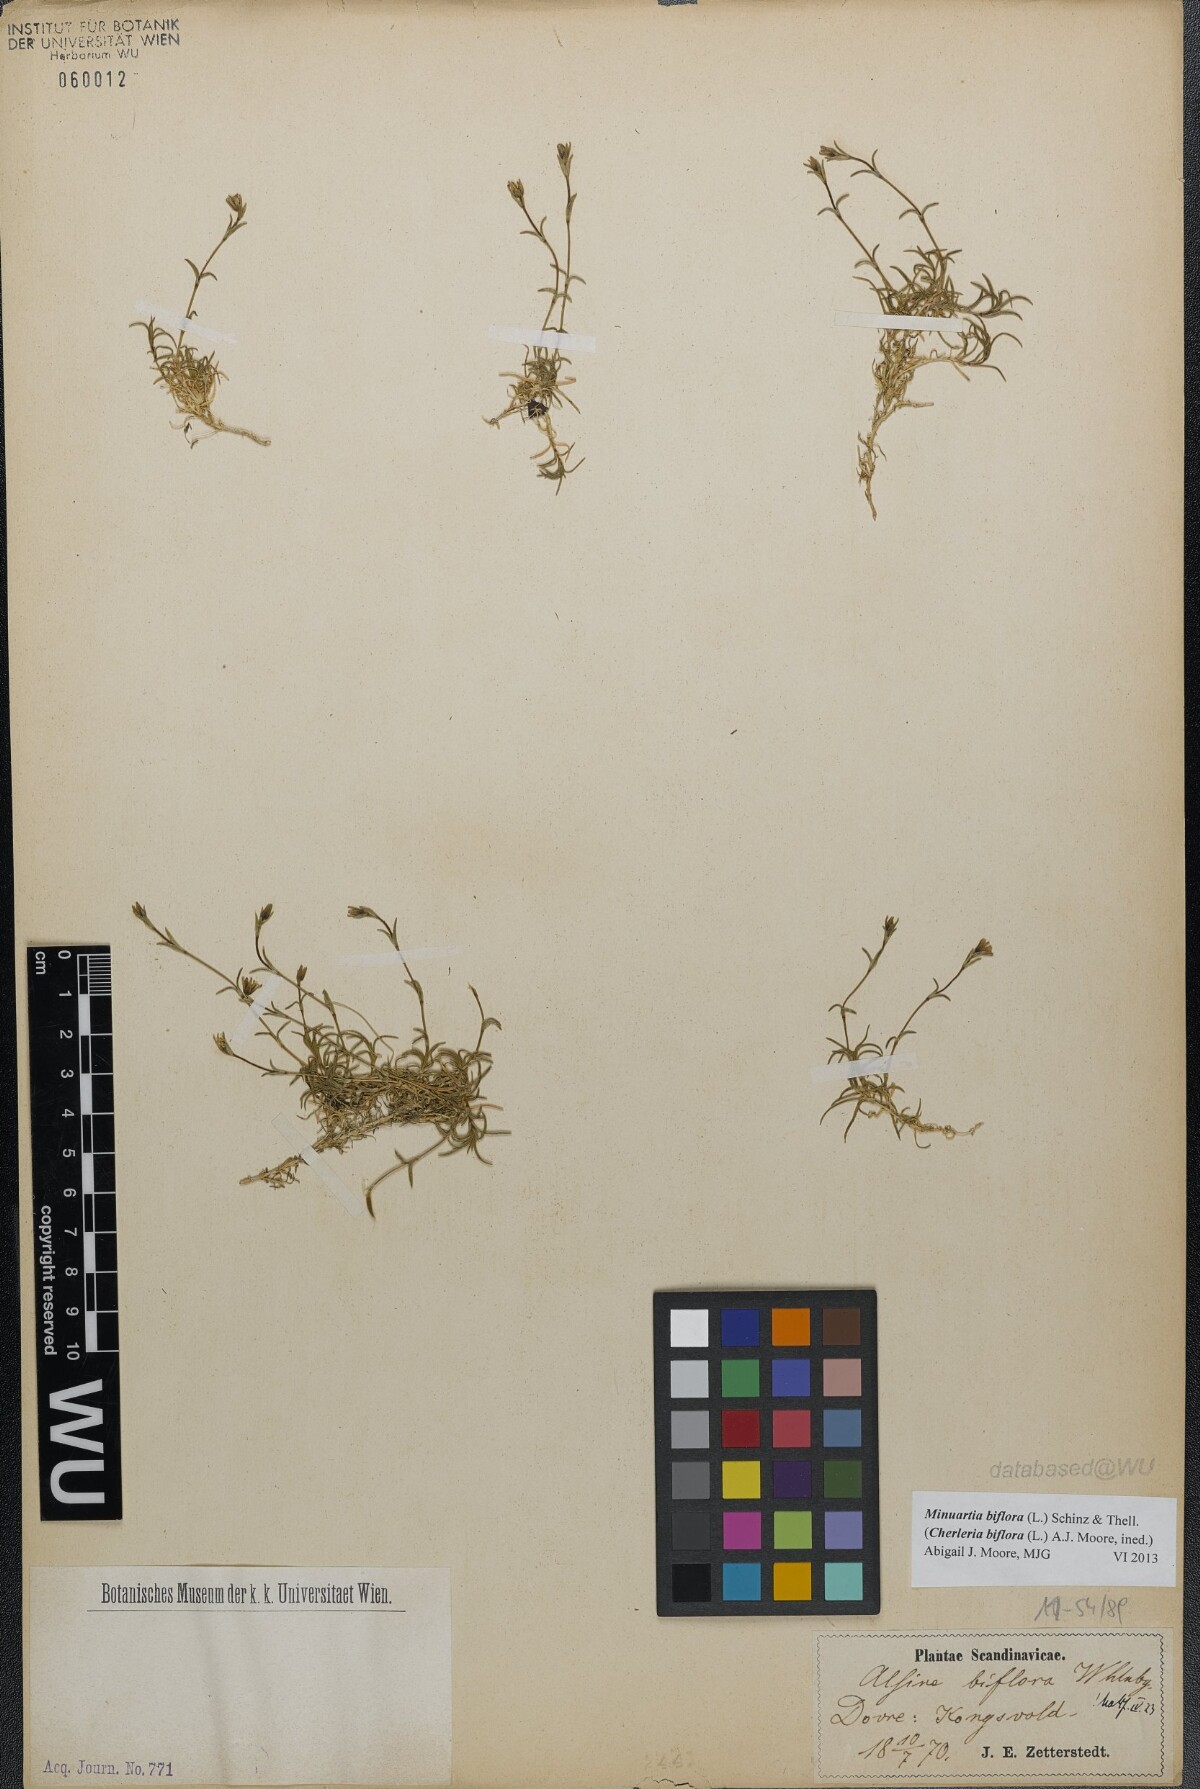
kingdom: Plantae
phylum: Tracheophyta
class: Magnoliopsida
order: Caryophyllales
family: Caryophyllaceae
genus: Cherleria
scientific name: Cherleria biflora
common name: Mountain sandwort
